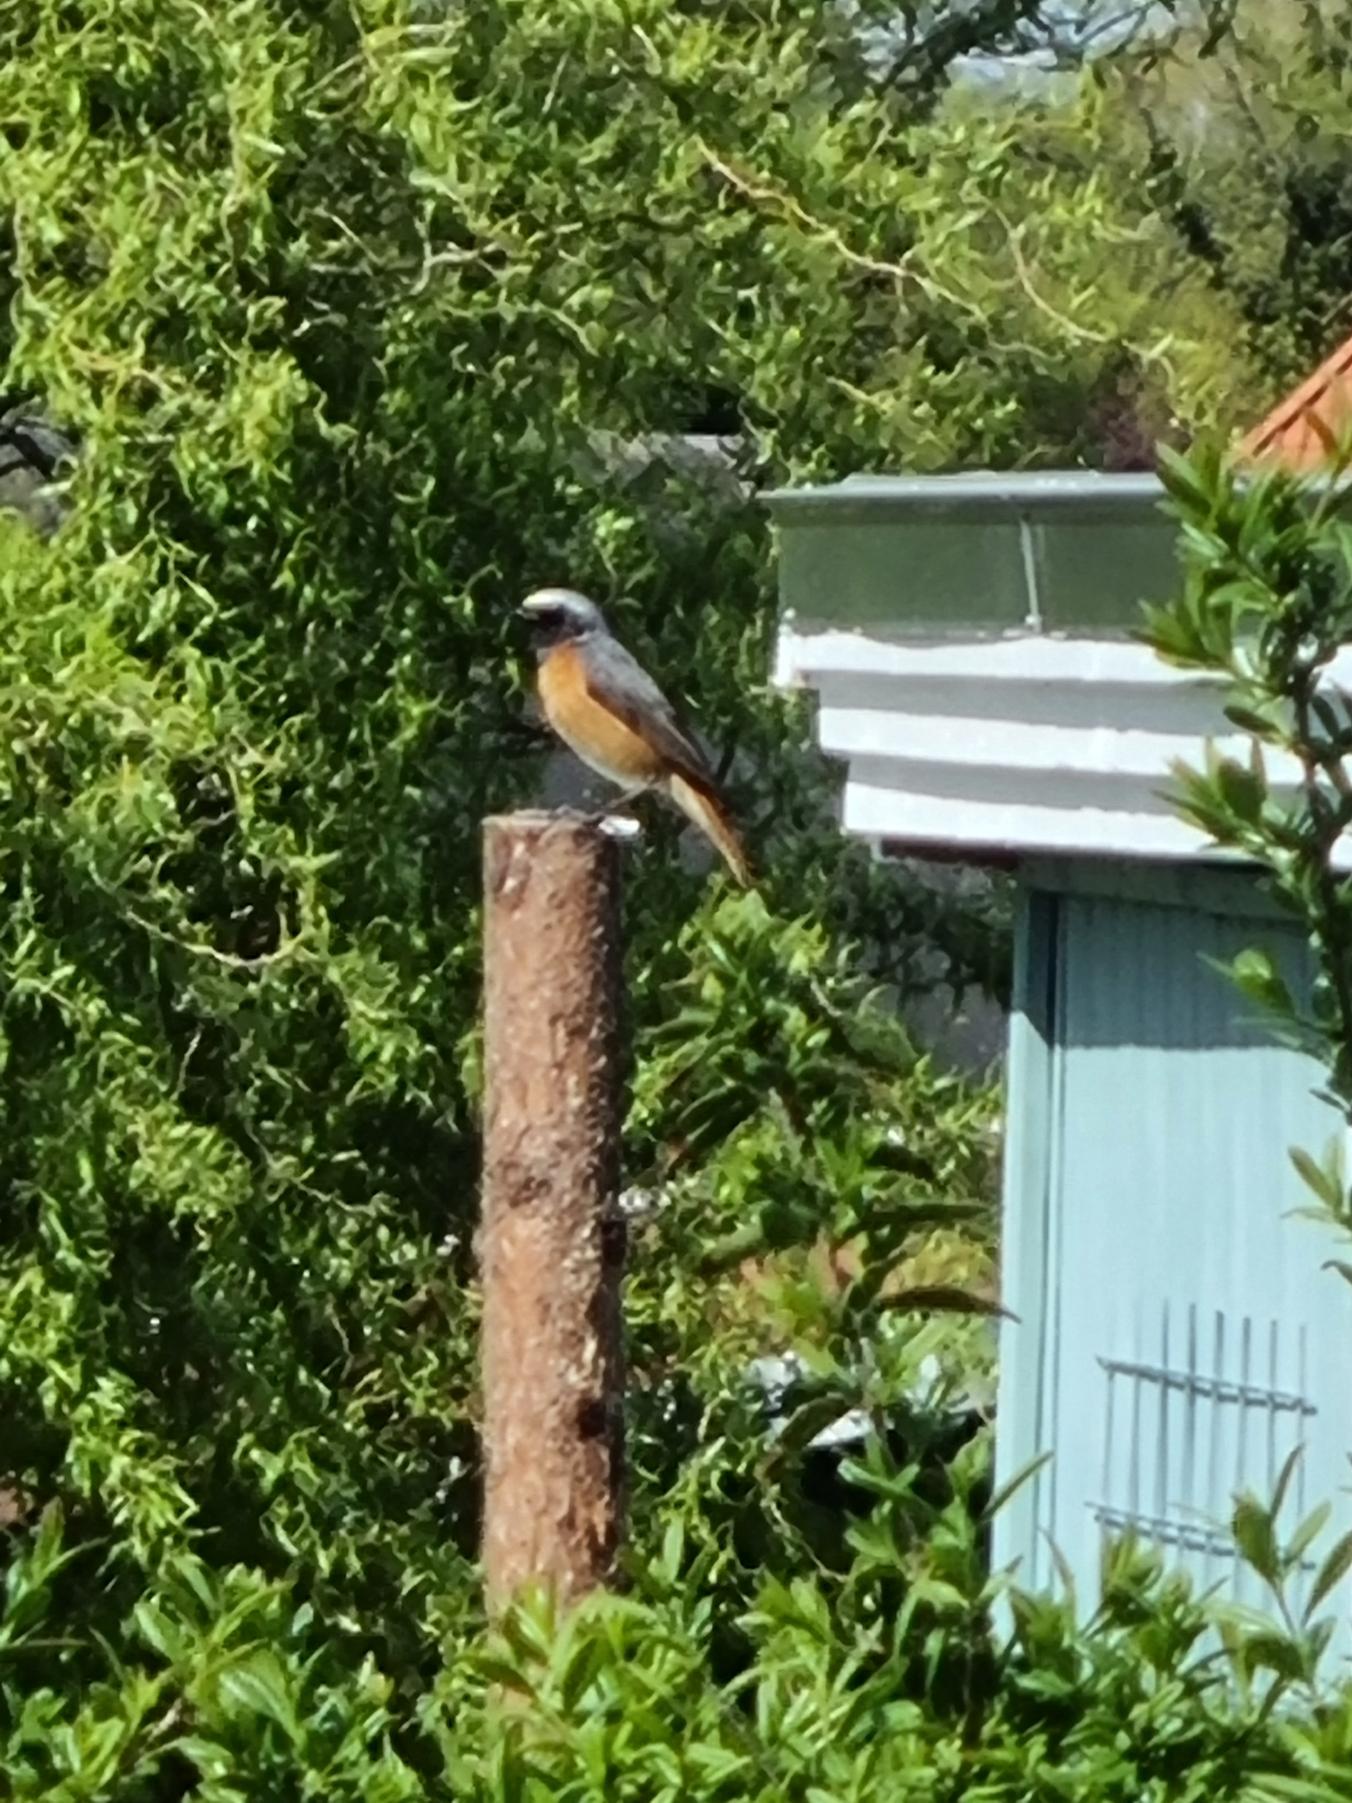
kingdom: Animalia
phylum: Chordata
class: Aves
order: Passeriformes
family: Muscicapidae
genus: Phoenicurus
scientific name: Phoenicurus phoenicurus
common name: Rødstjert
